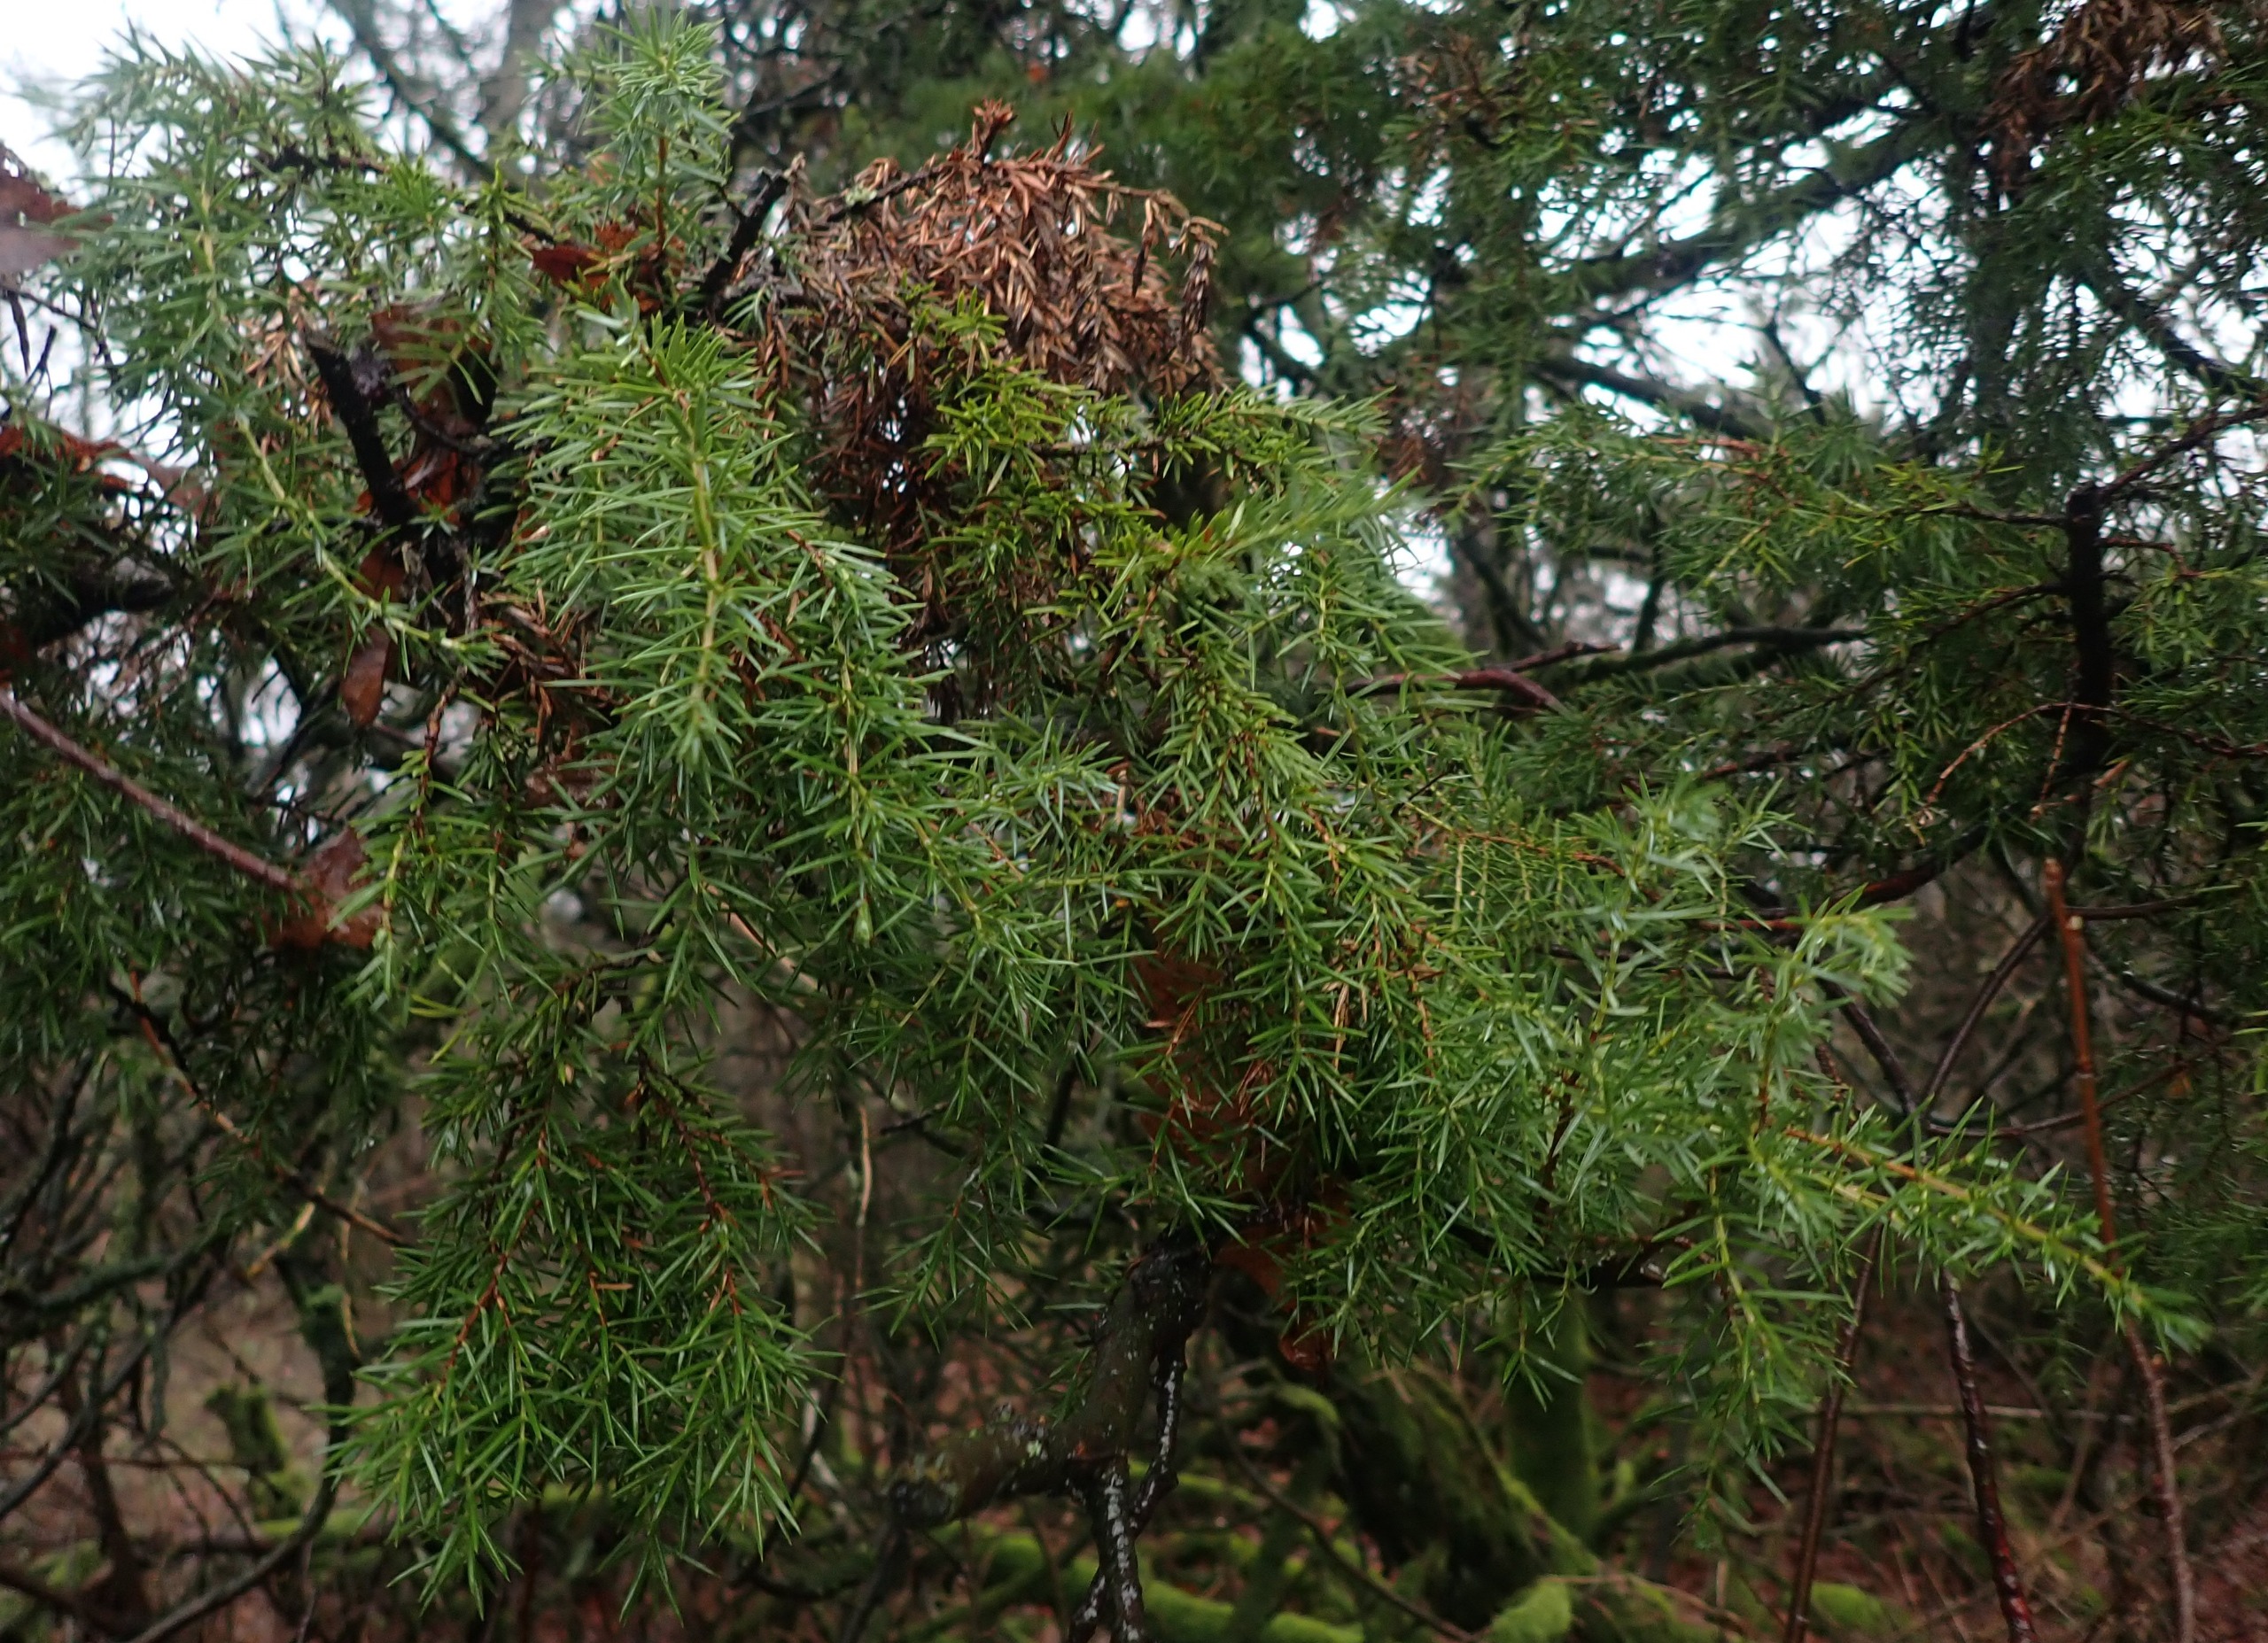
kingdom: Plantae
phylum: Tracheophyta
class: Pinopsida
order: Pinales
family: Cupressaceae
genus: Juniperus
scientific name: Juniperus communis
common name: Almindelig ene
